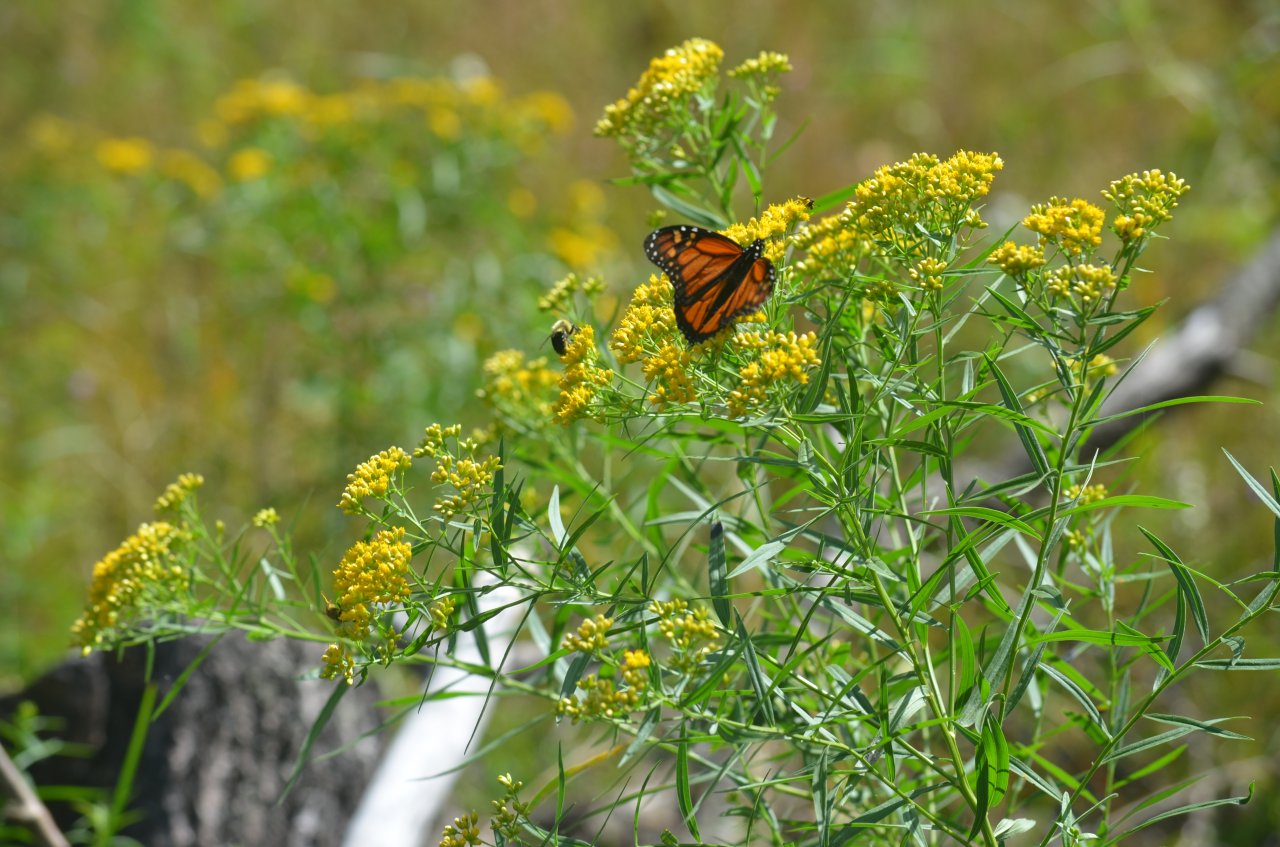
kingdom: Animalia
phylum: Arthropoda
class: Insecta
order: Lepidoptera
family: Nymphalidae
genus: Danaus
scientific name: Danaus plexippus
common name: Monarch
